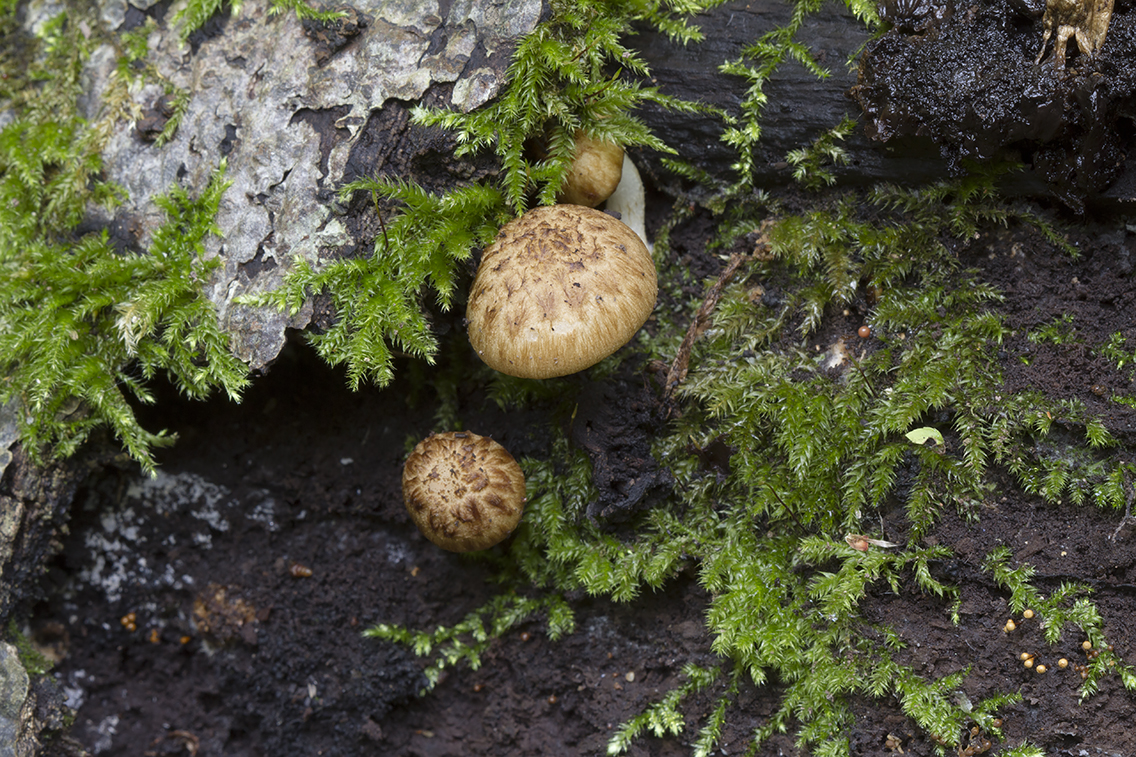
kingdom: Fungi
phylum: Basidiomycota
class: Agaricomycetes
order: Agaricales
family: Psathyrellaceae
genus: Cystoagaricus
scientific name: Cystoagaricus lepidotoides
